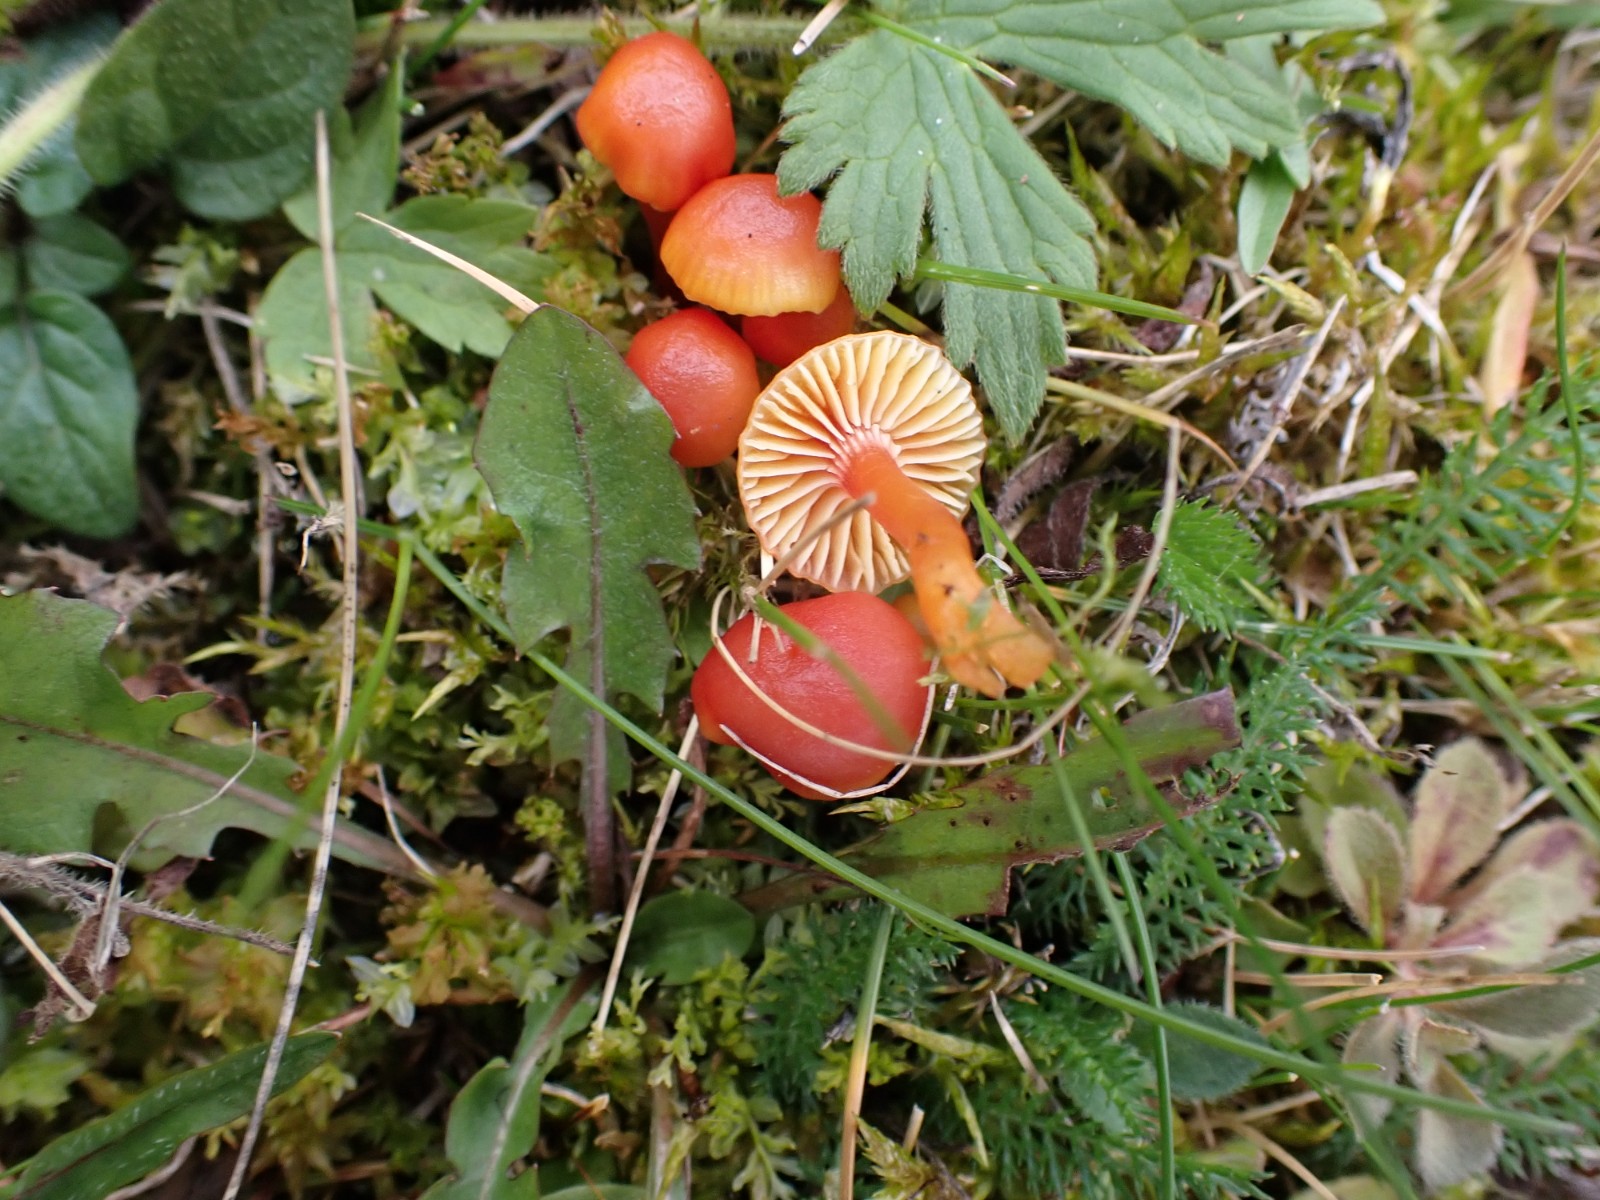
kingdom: Fungi
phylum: Basidiomycota
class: Agaricomycetes
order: Agaricales
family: Hygrophoraceae
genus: Hygrocybe
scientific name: Hygrocybe insipida
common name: liden vokshat
